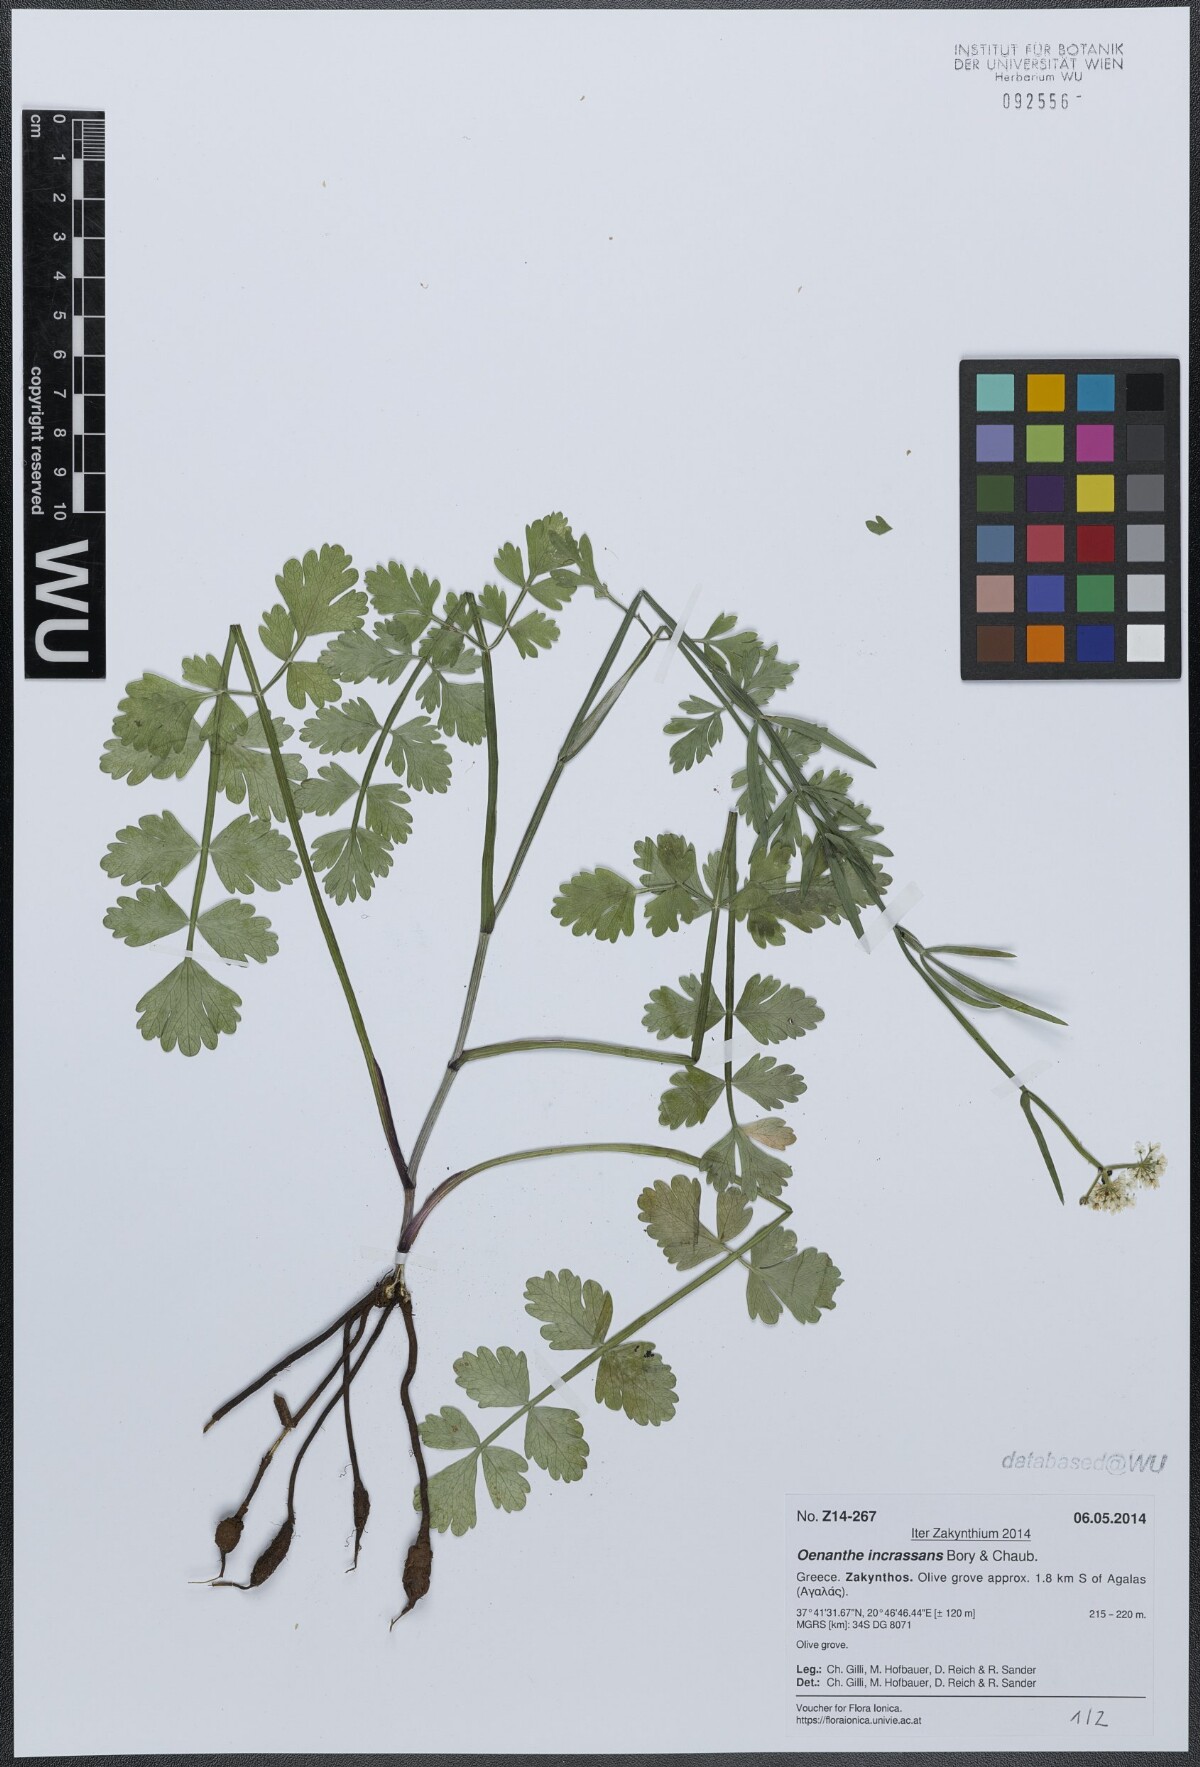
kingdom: Plantae
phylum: Tracheophyta
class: Magnoliopsida
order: Apiales
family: Apiaceae
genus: Oenanthe
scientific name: Oenanthe pimpinelloides
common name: Corky-fruited water-dropwort
